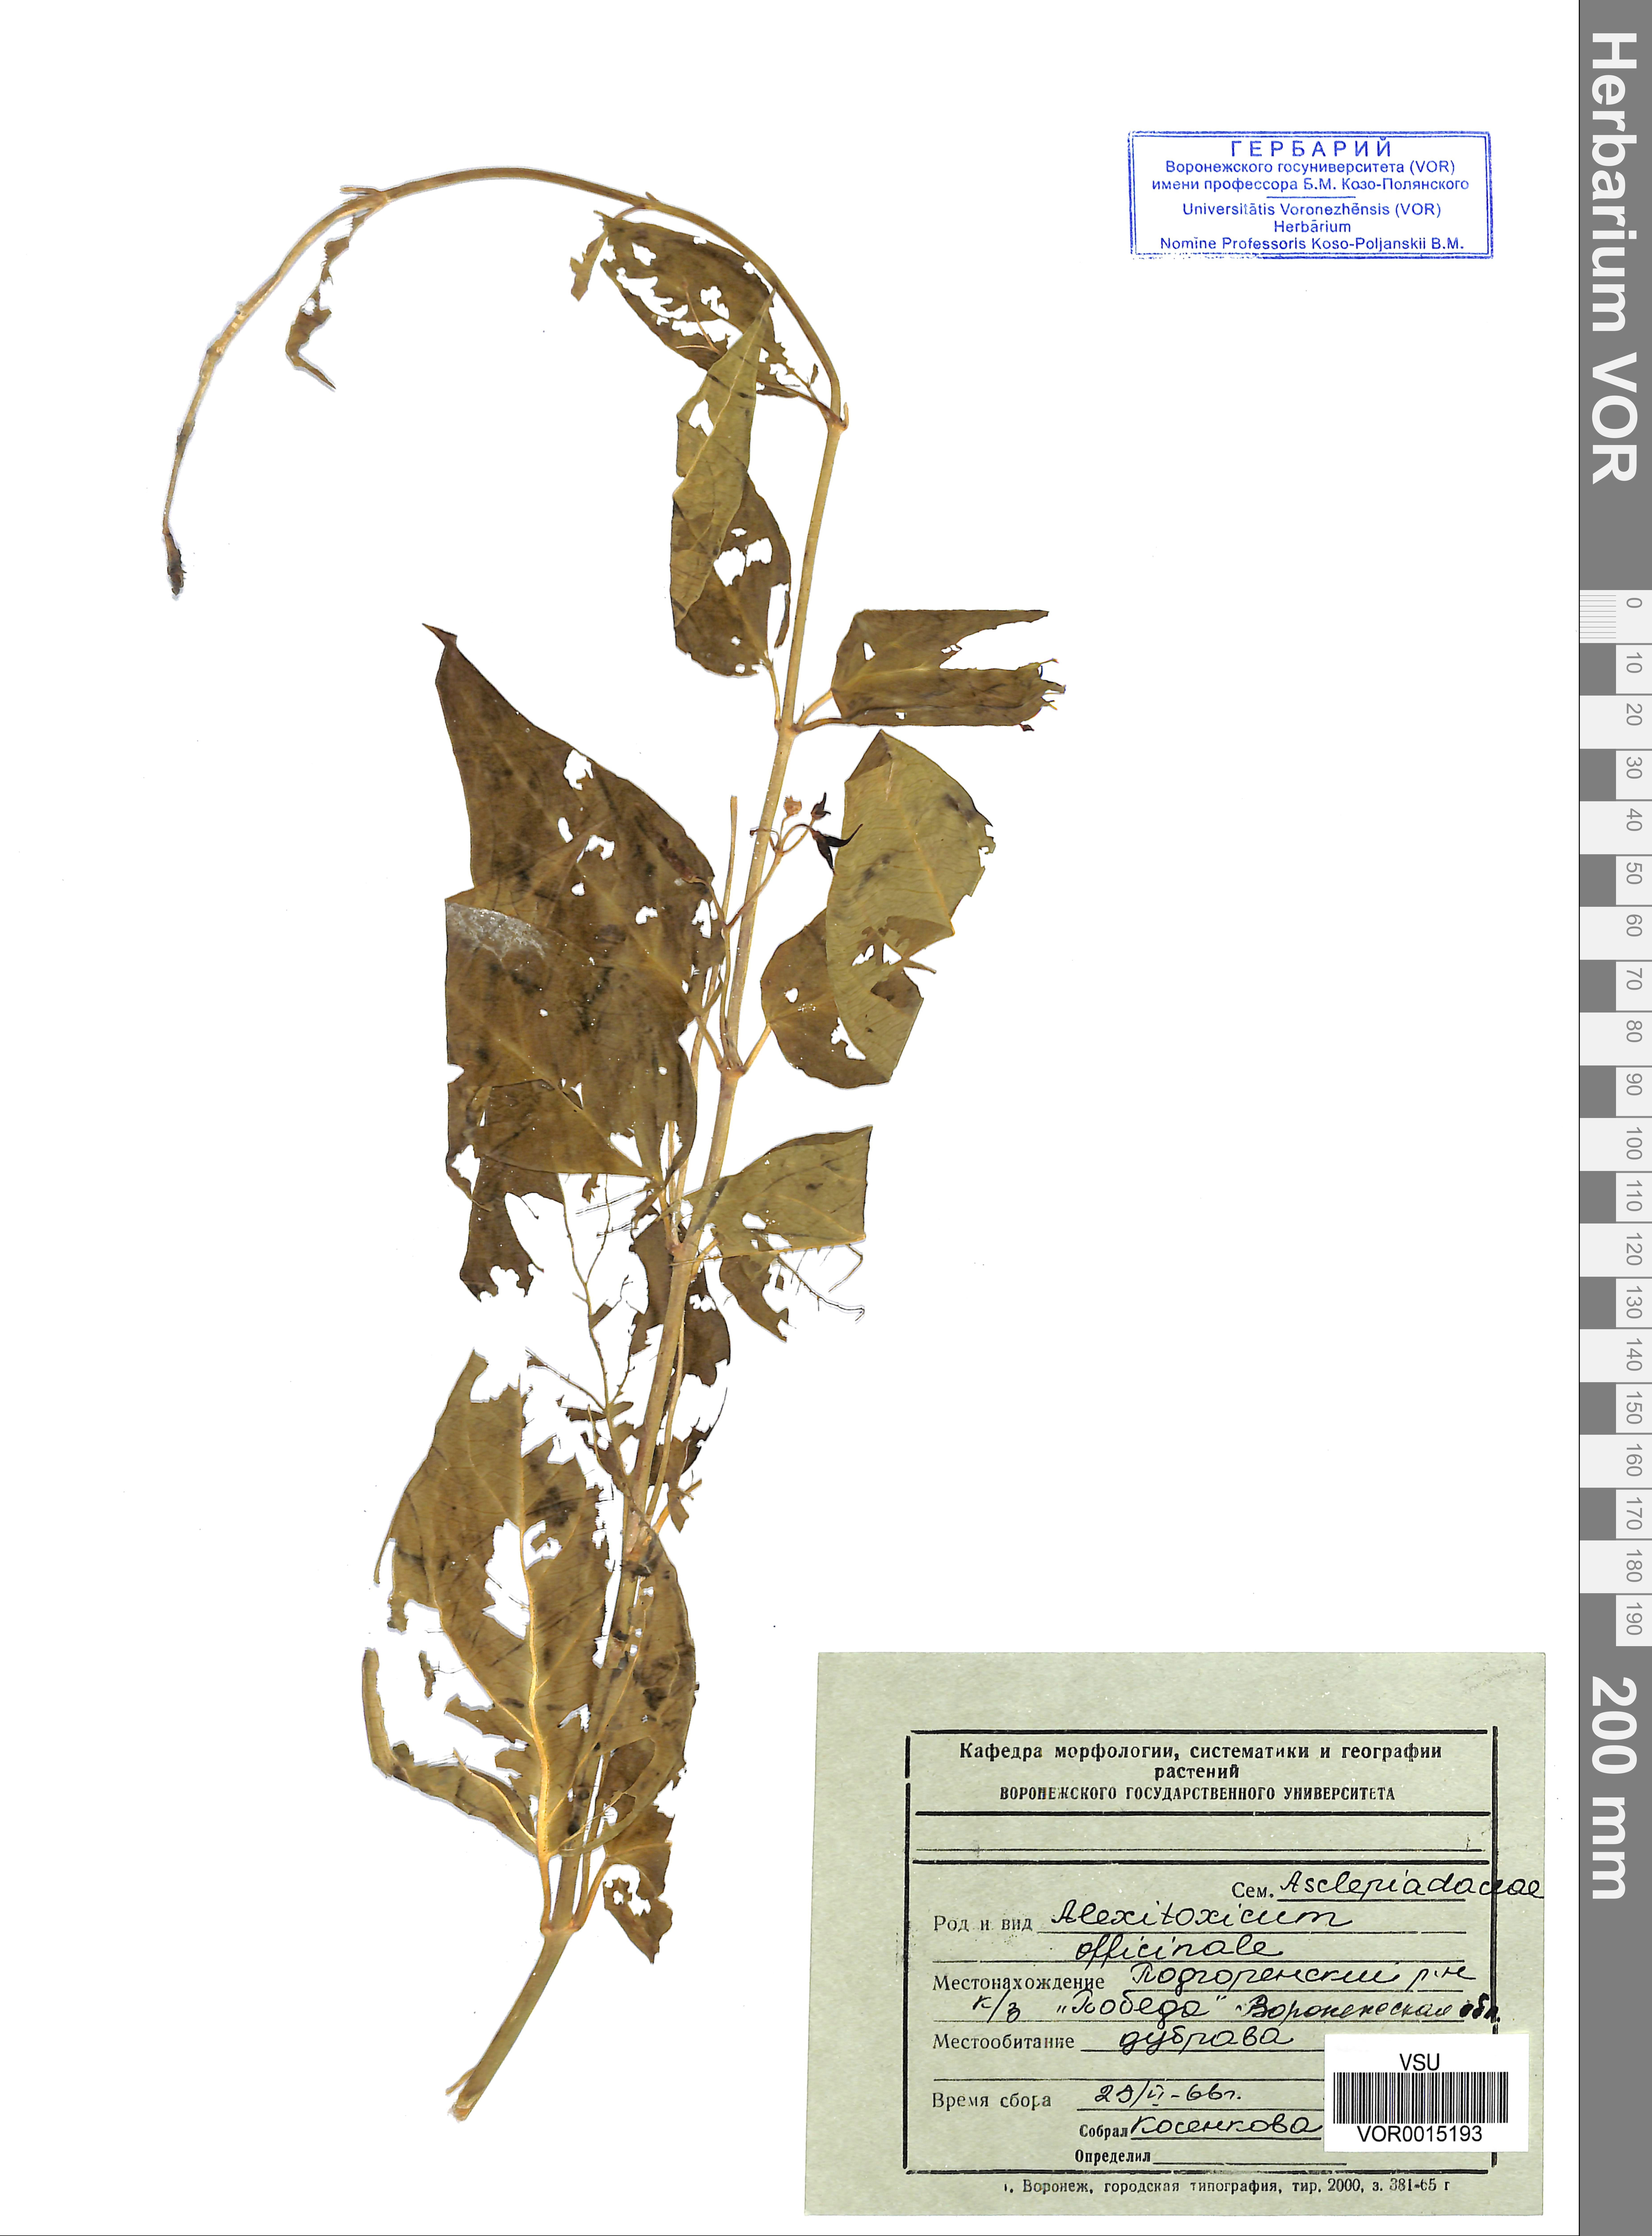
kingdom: Plantae
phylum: Tracheophyta
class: Magnoliopsida
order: Gentianales
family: Apocynaceae
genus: Vincetoxicum
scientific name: Vincetoxicum hirundinaria
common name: White swallowwort
